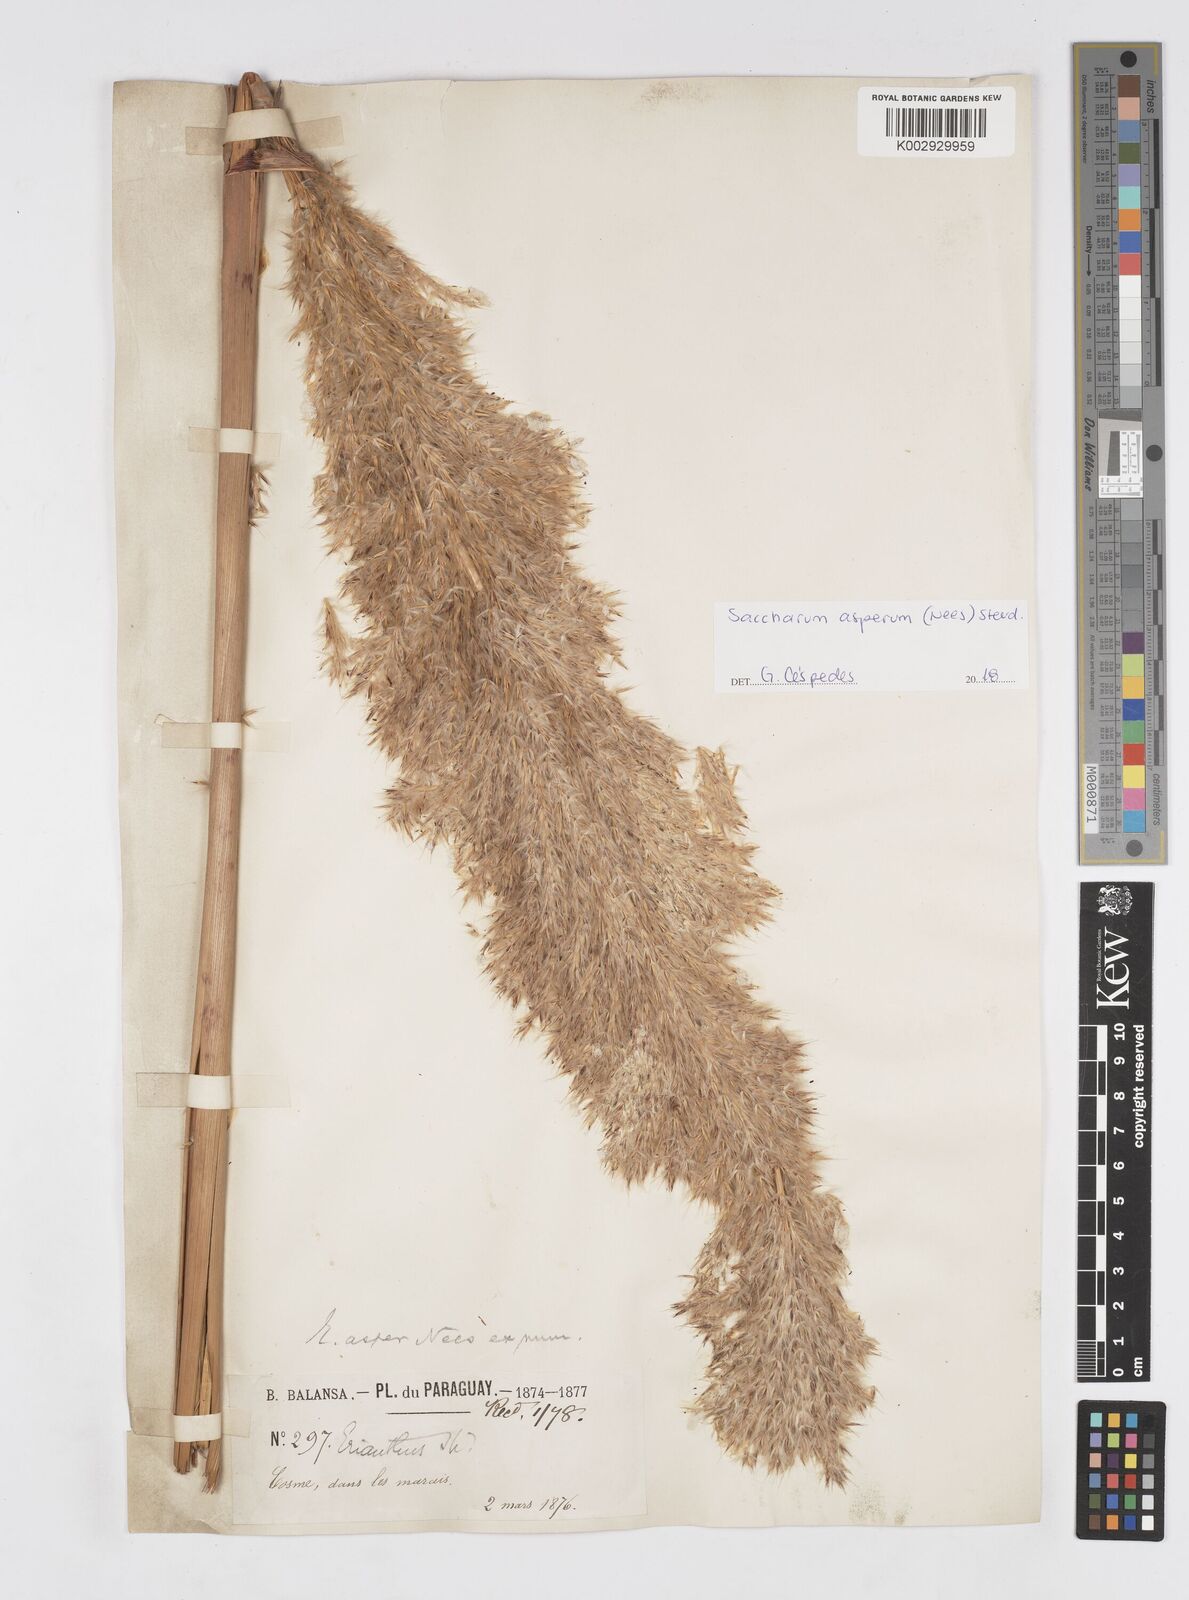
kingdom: Plantae
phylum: Tracheophyta
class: Liliopsida
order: Poales
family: Poaceae
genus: Erianthus
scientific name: Erianthus asper
